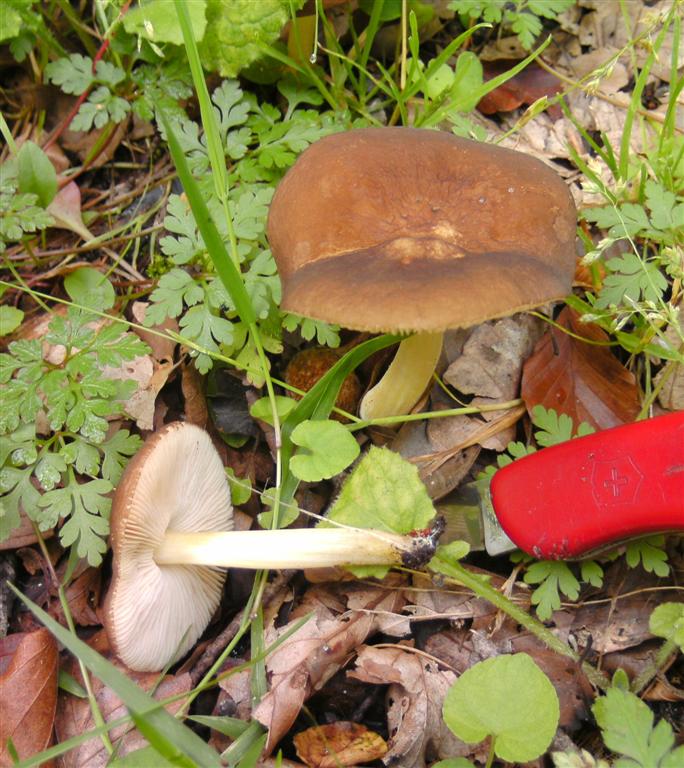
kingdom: Fungi
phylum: Basidiomycota
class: Agaricomycetes
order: Agaricales
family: Pluteaceae
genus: Pluteus
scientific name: Pluteus romellii
